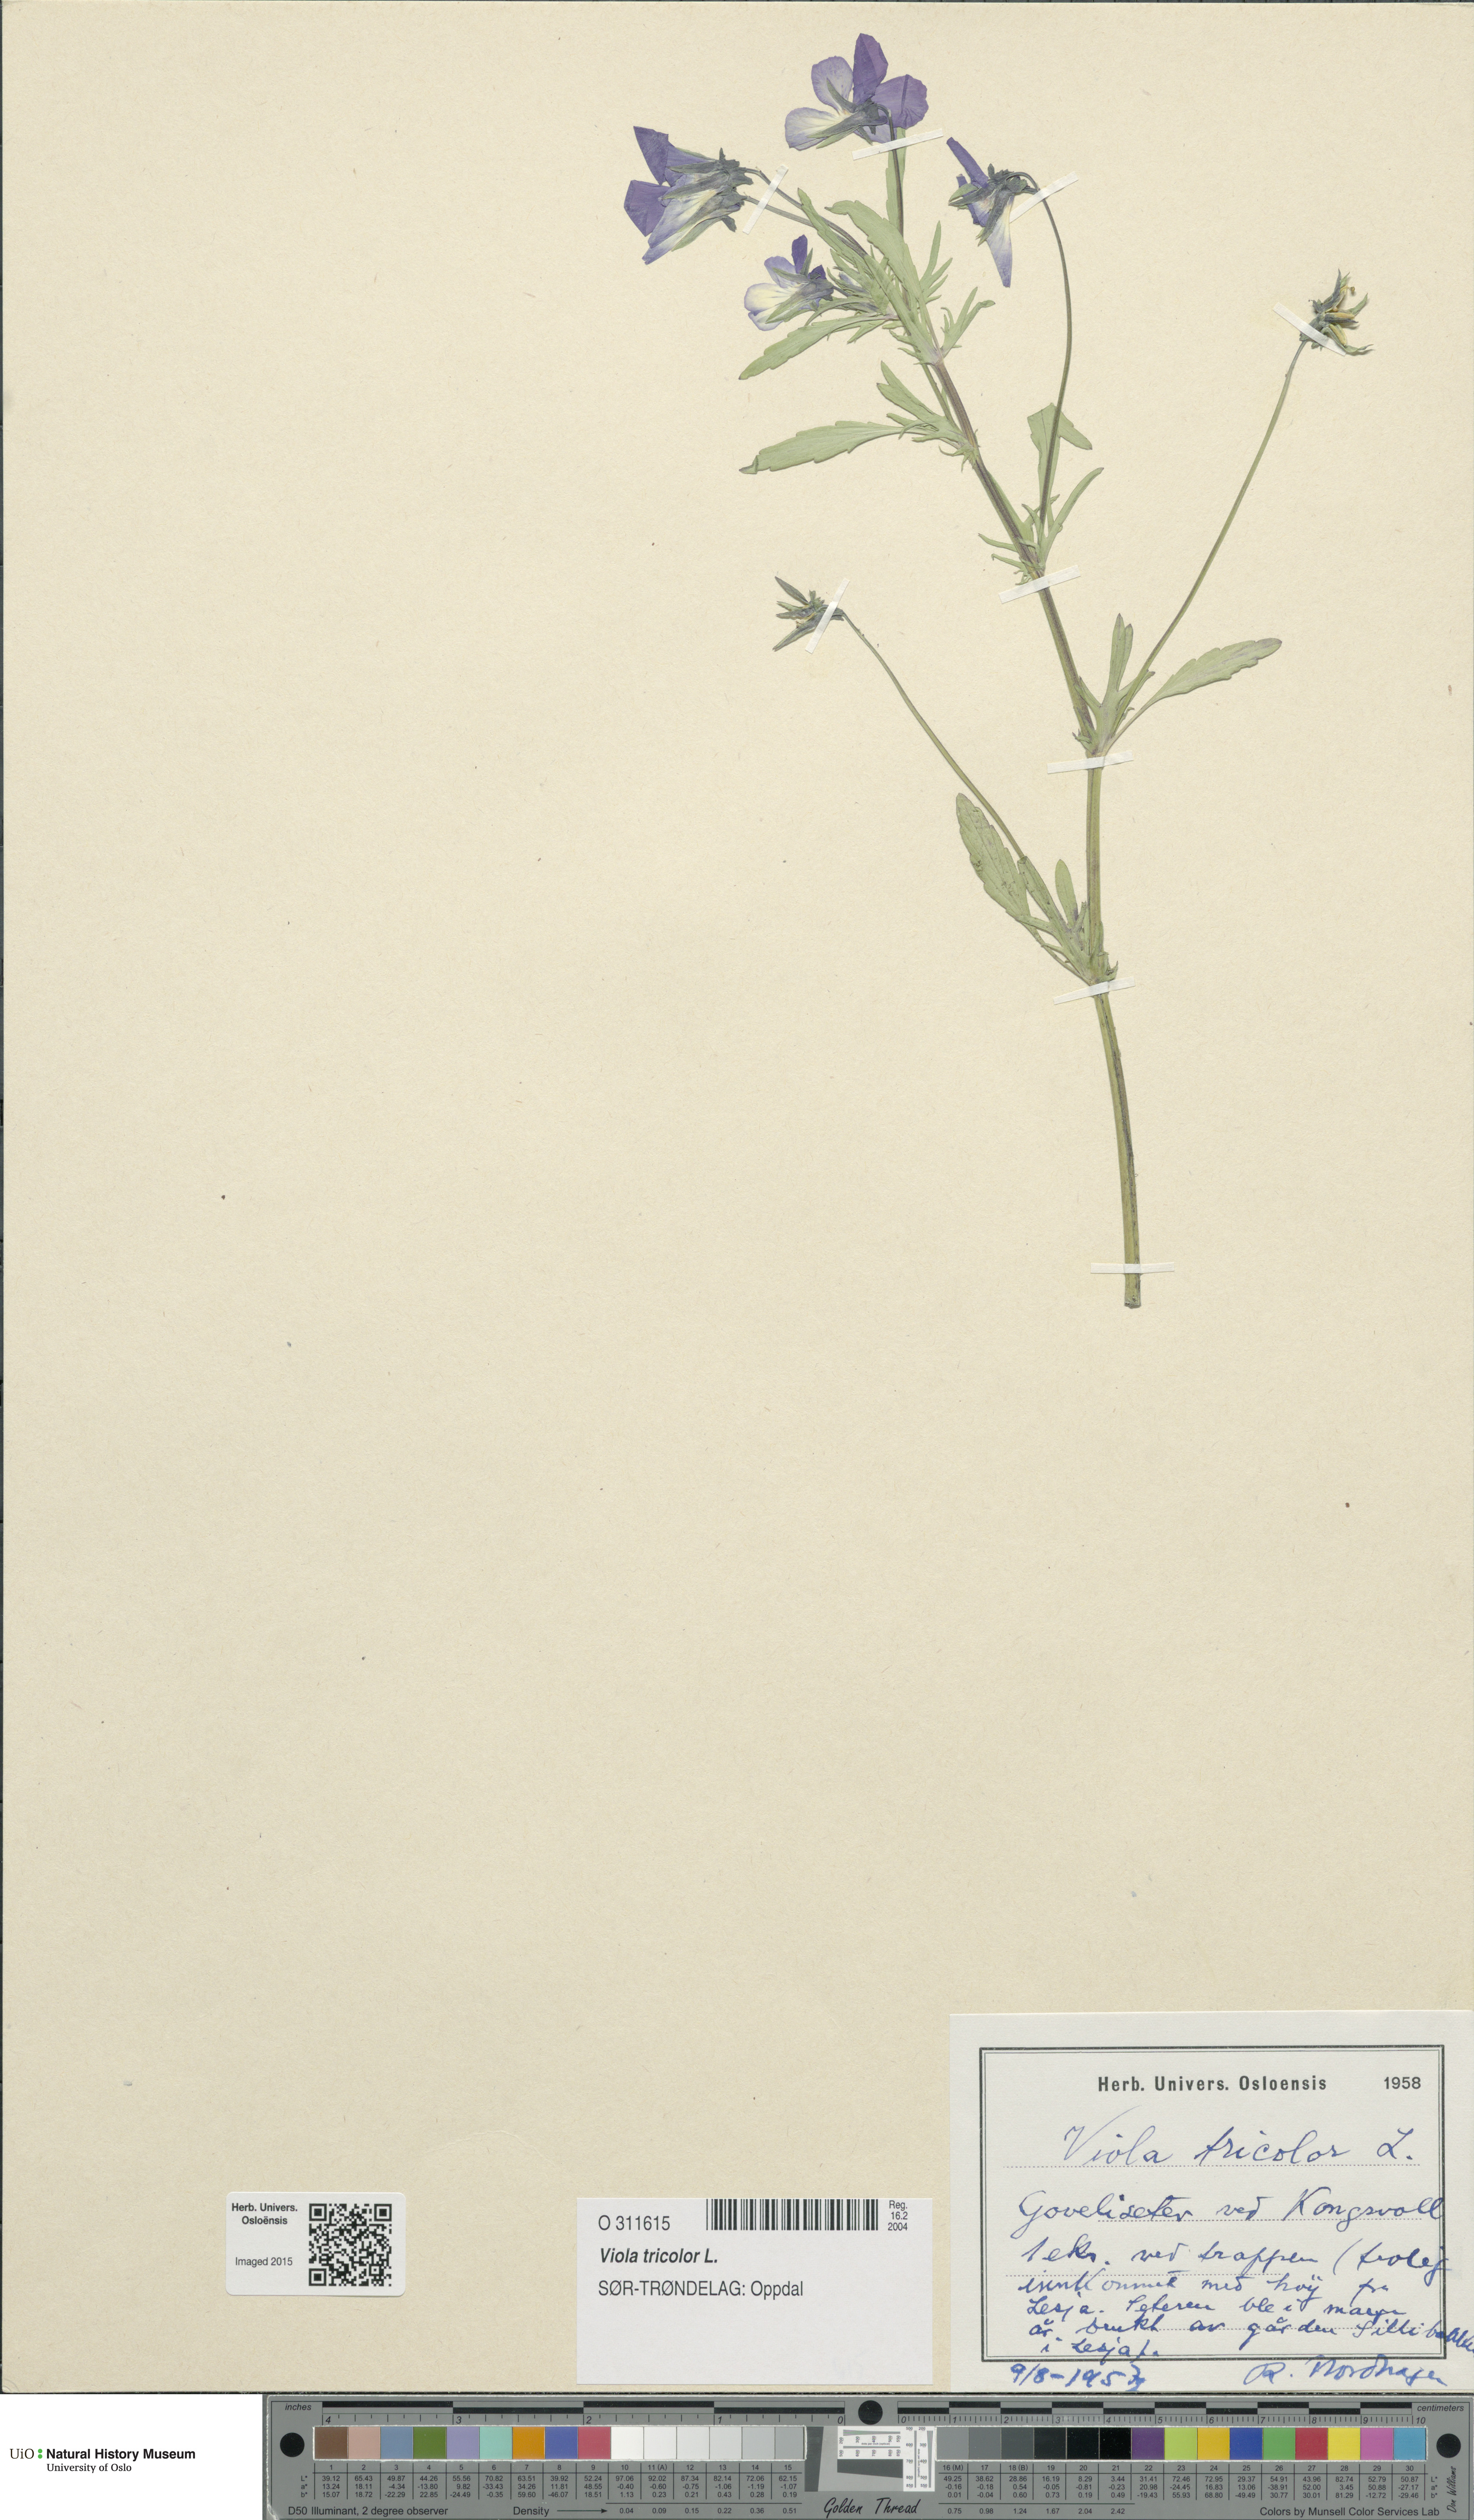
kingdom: Plantae
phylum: Tracheophyta
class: Magnoliopsida
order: Malpighiales
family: Violaceae
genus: Viola
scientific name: Viola tricolor
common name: Pansy
